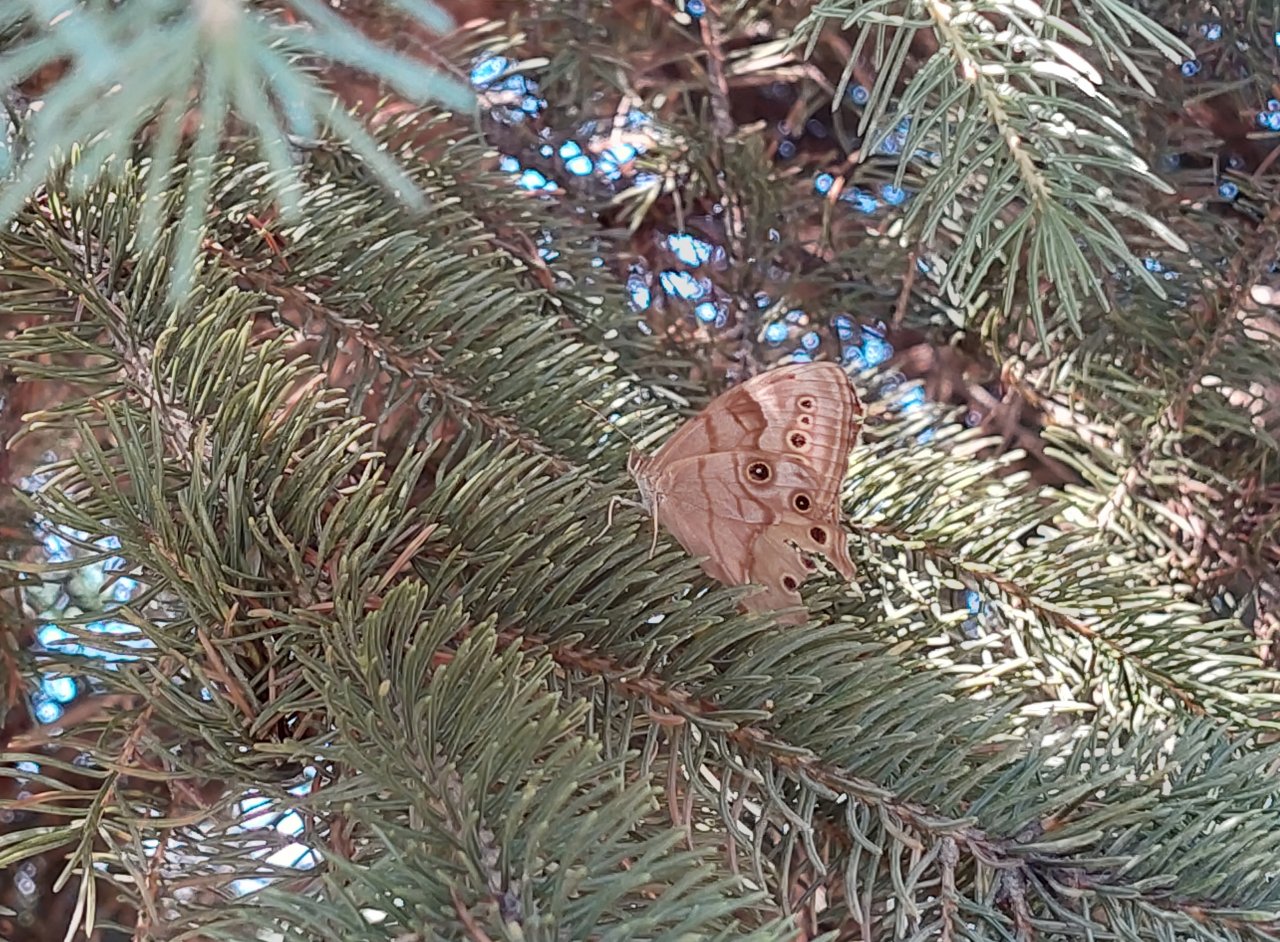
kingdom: Animalia
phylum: Arthropoda
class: Insecta
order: Lepidoptera
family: Nymphalidae
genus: Lethe
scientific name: Lethe anthedon
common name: Northern Pearly-Eye
